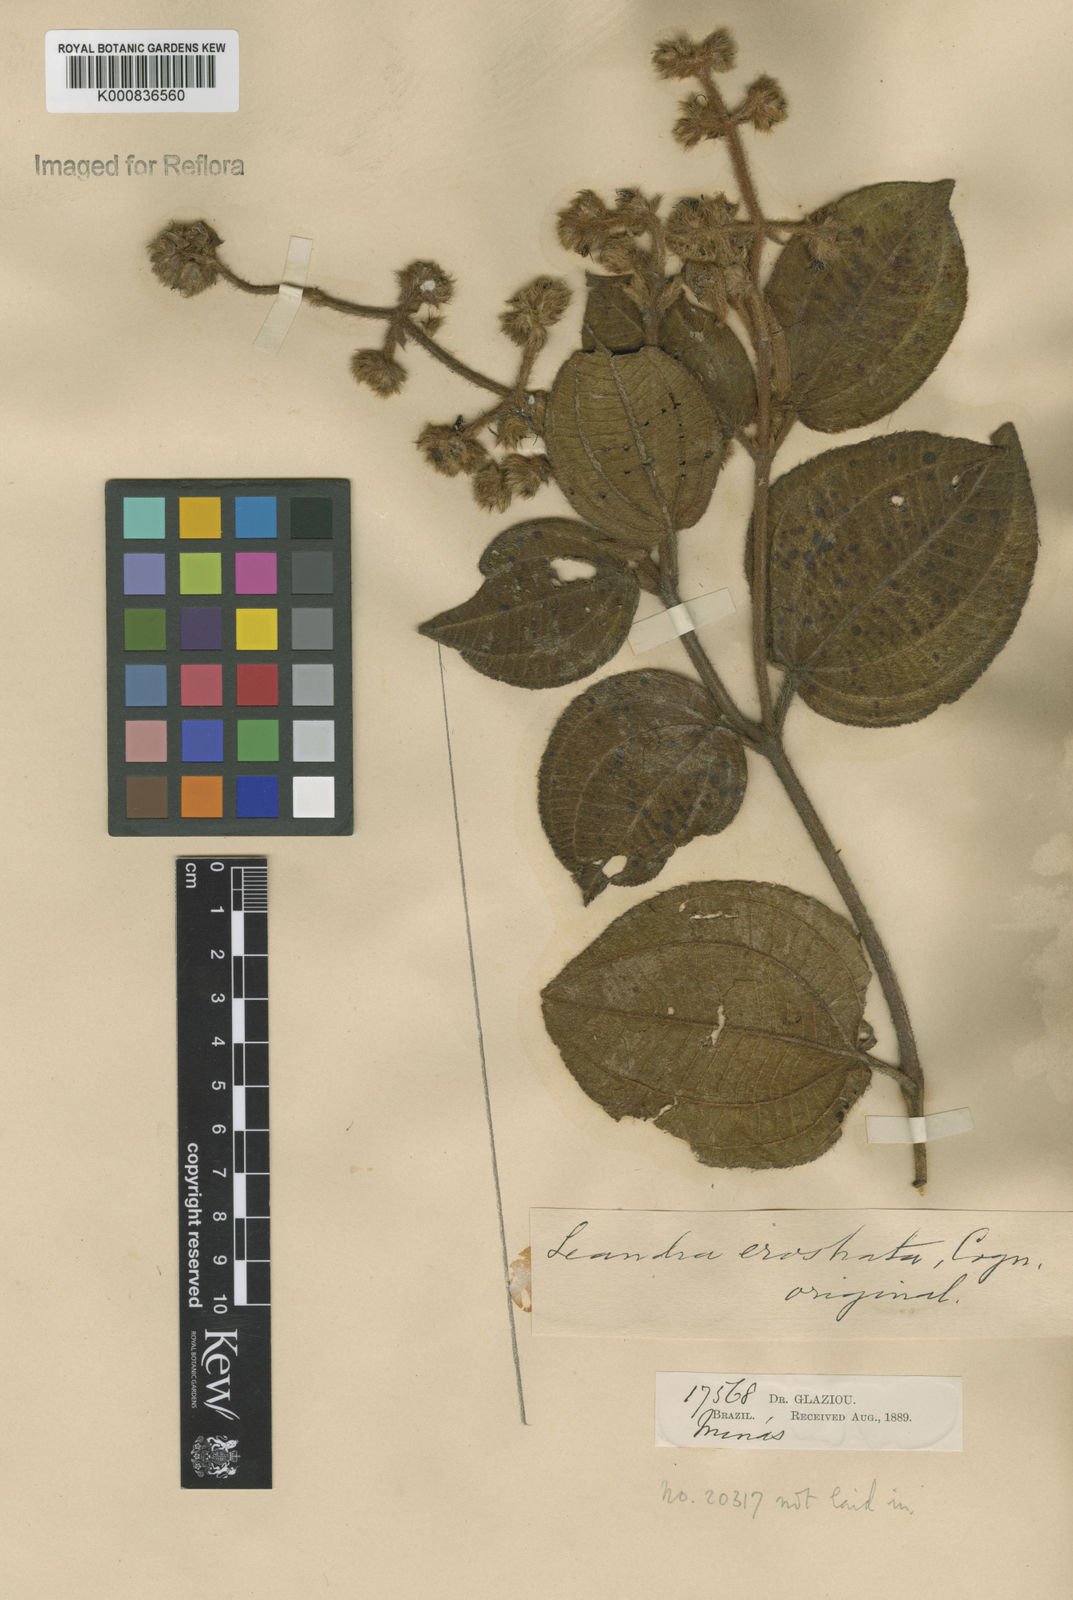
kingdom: Plantae
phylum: Tracheophyta
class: Magnoliopsida
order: Myrtales
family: Melastomataceae
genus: Miconia
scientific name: Miconia erostrata
